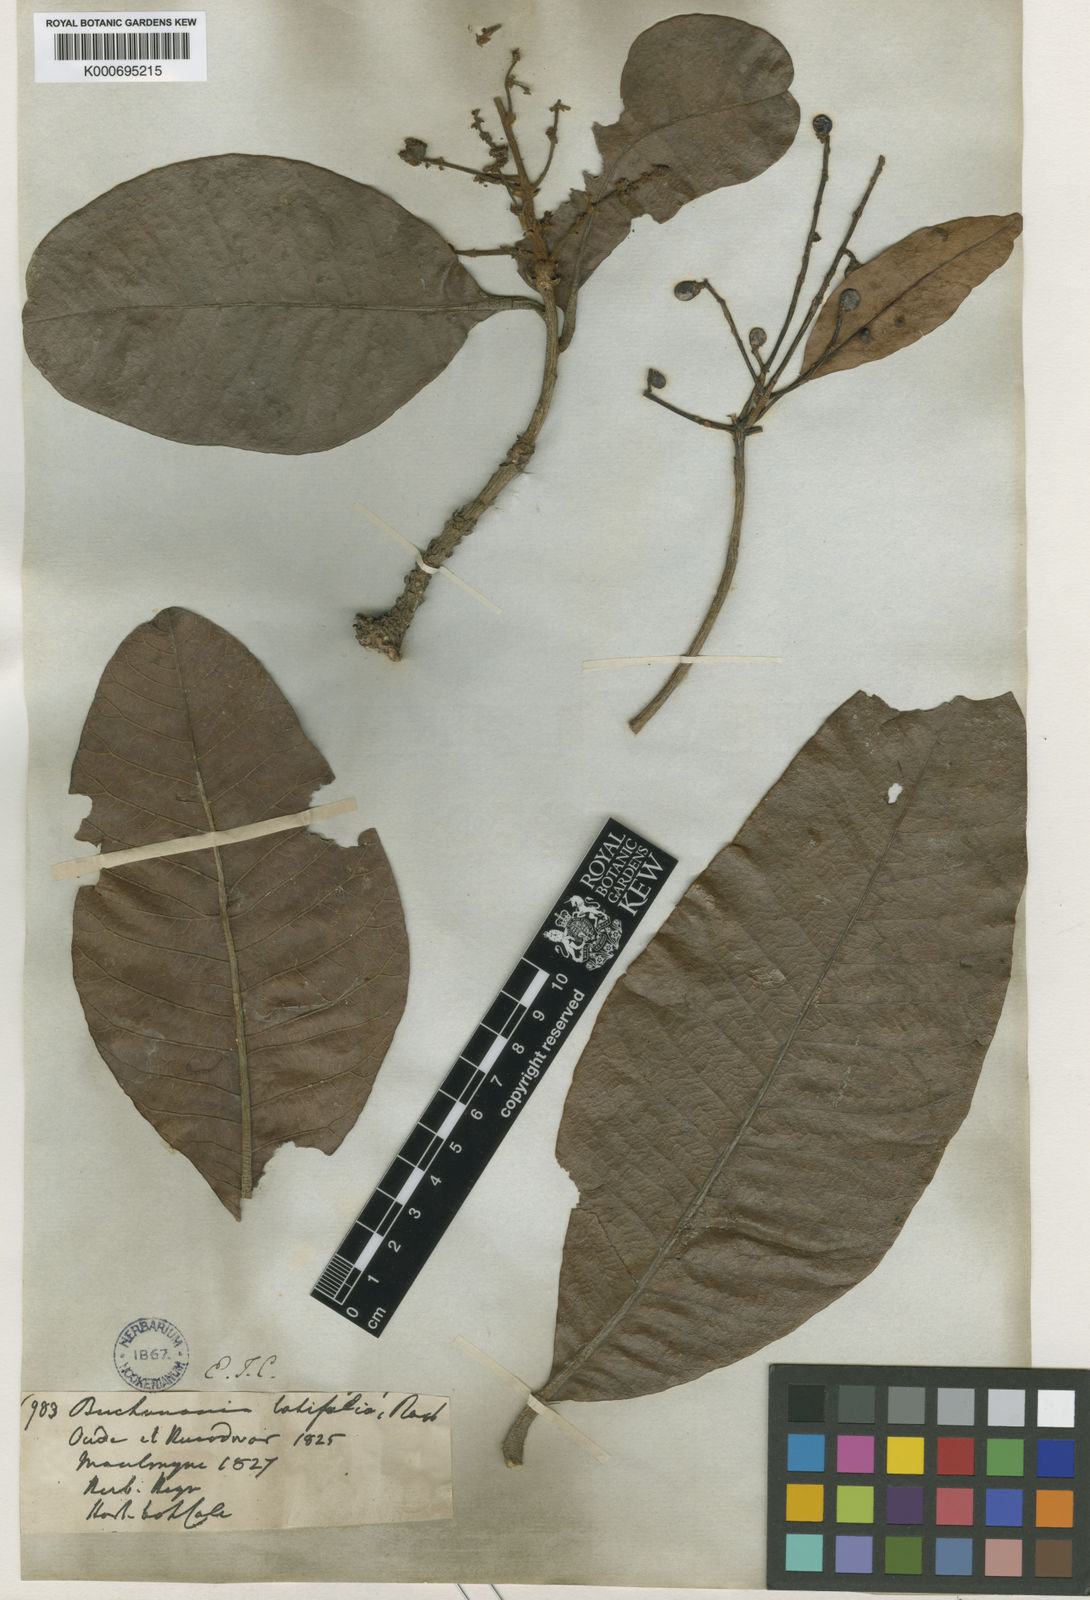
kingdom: Plantae
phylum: Tracheophyta
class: Magnoliopsida
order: Sapindales
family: Anacardiaceae
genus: Buchanania
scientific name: Buchanania cochinchinensis
